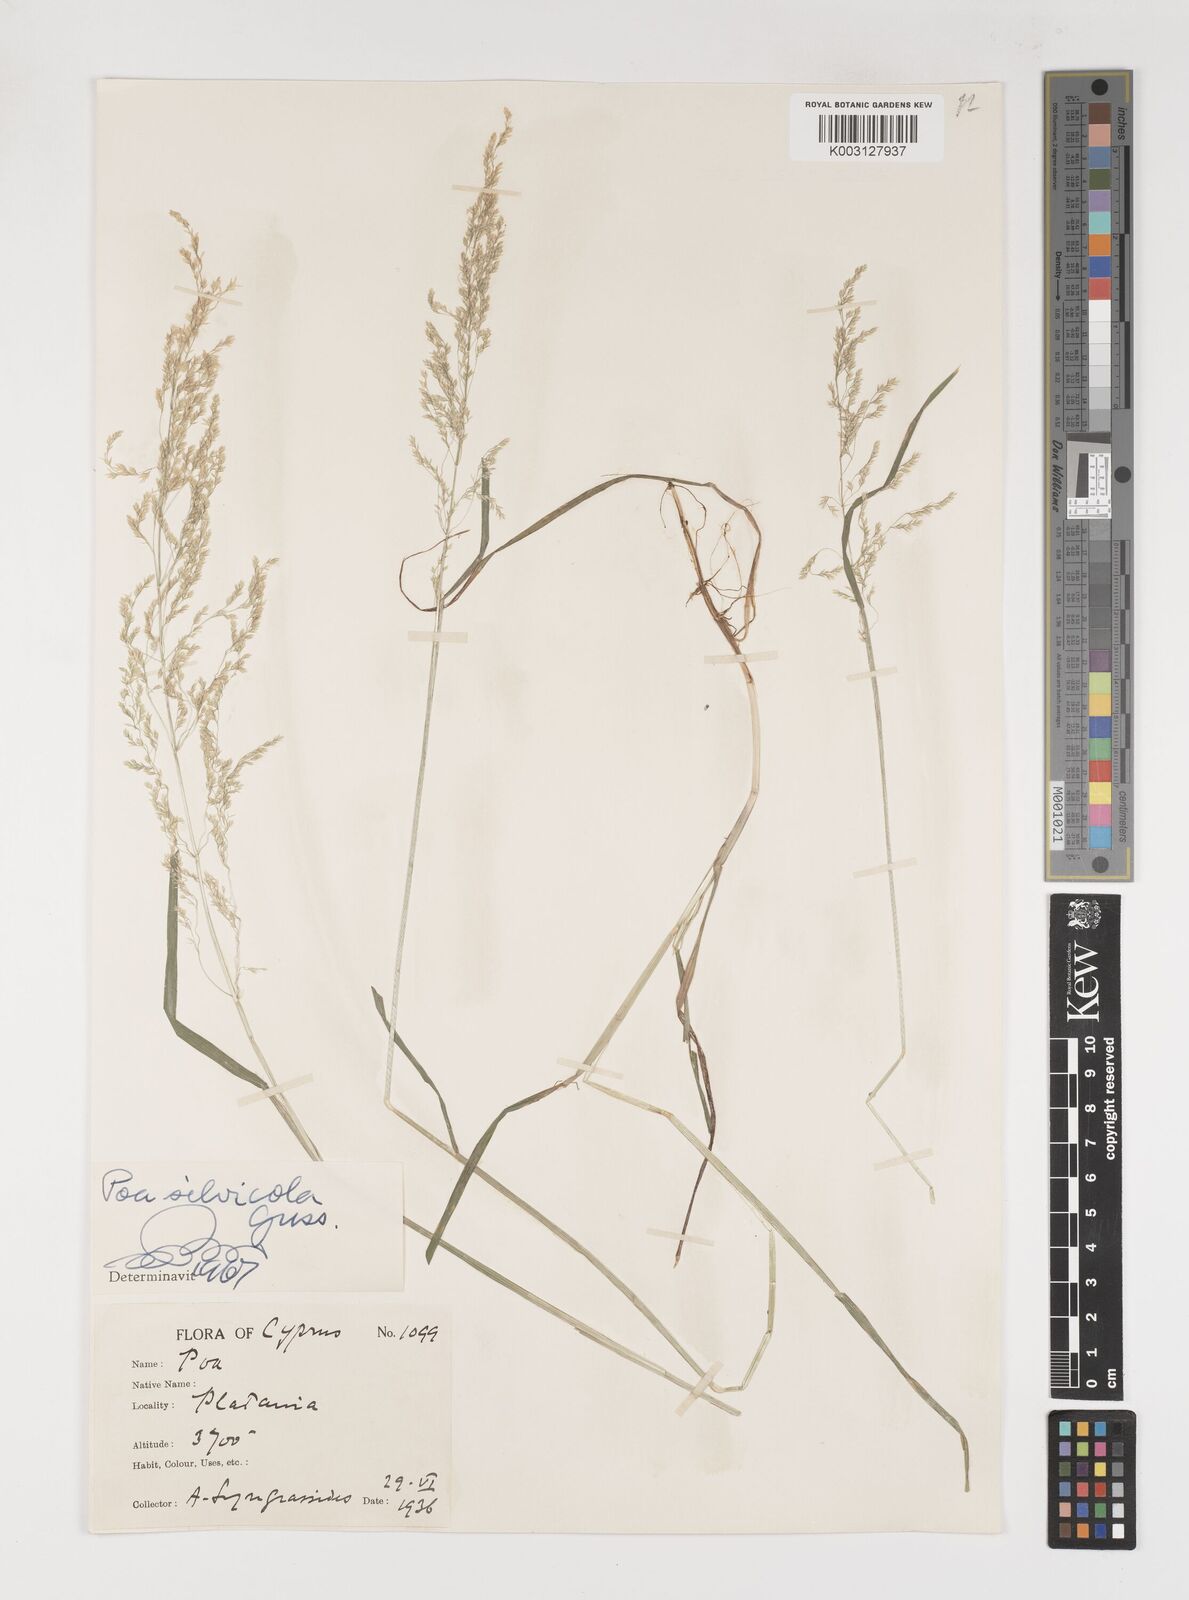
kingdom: Plantae
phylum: Tracheophyta
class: Liliopsida
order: Poales
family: Poaceae
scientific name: Poaceae
